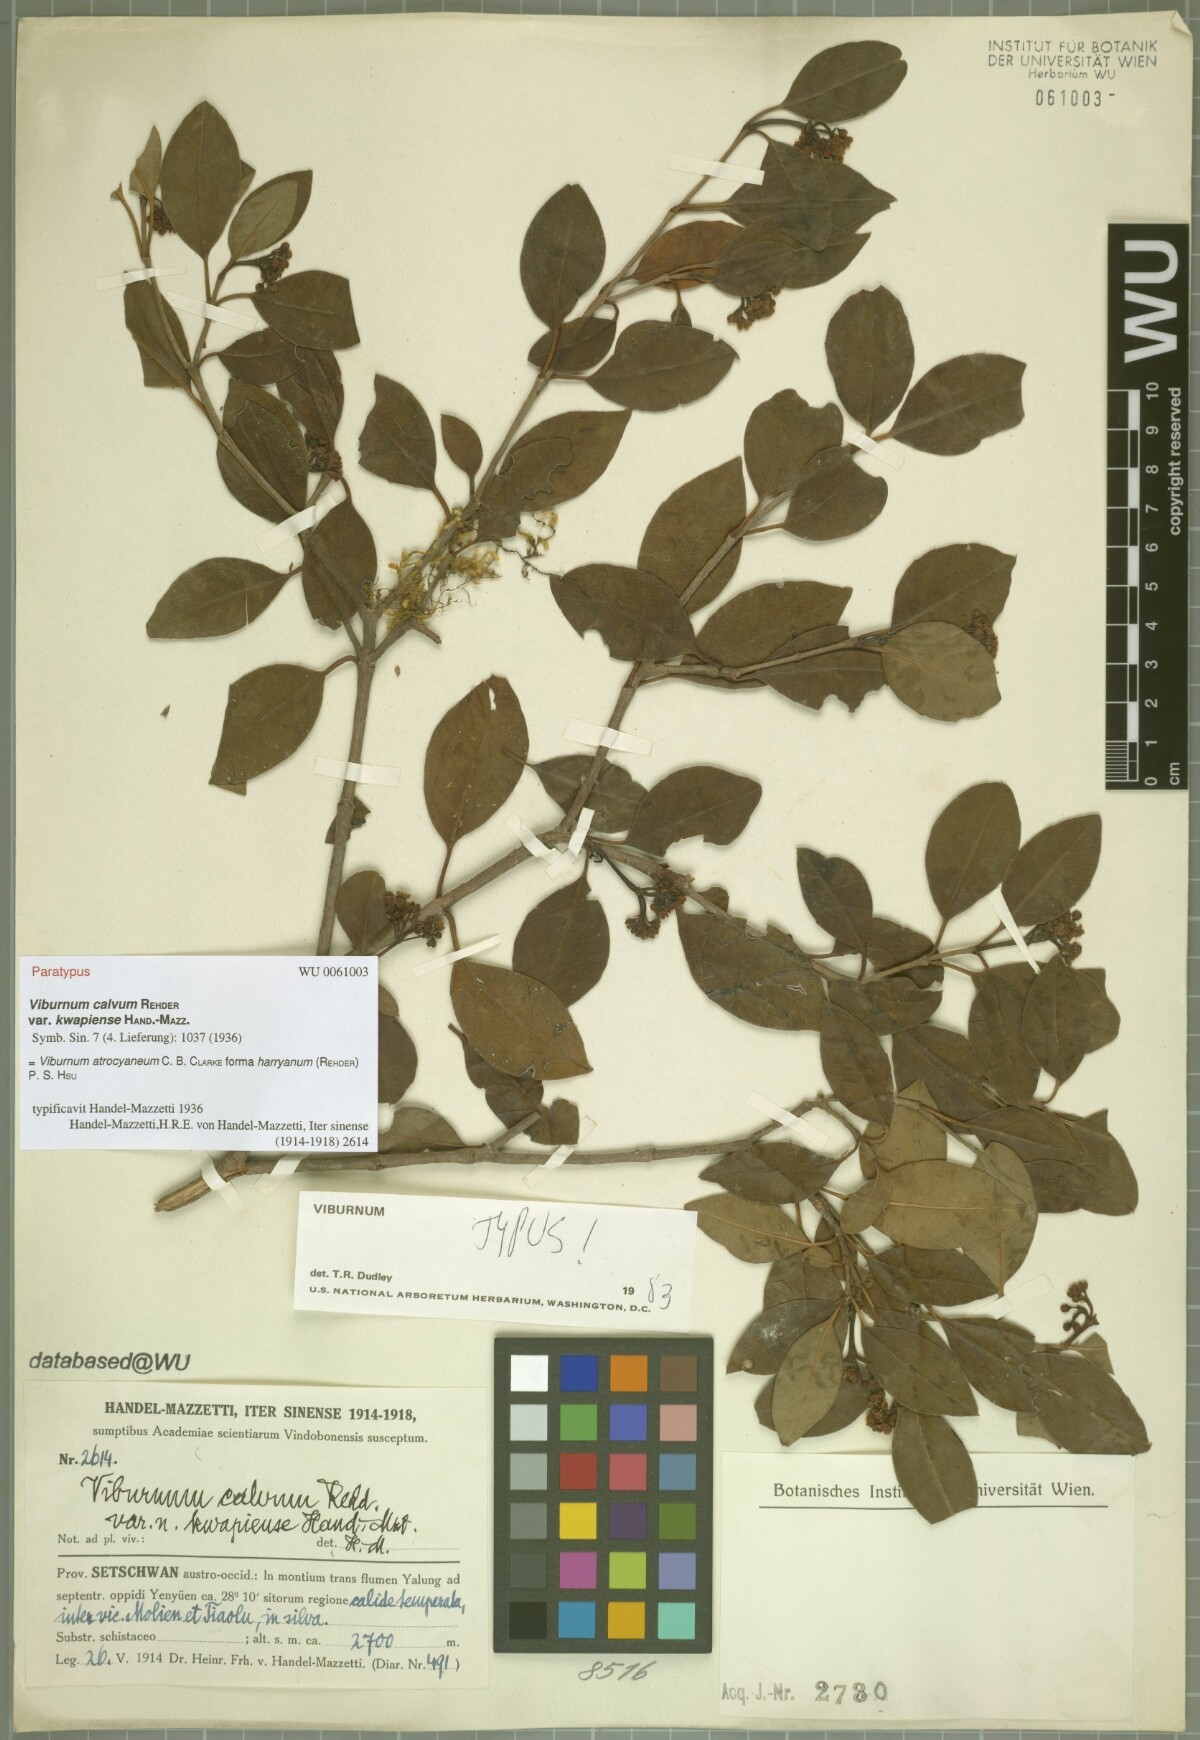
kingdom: Plantae
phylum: Tracheophyta
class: Magnoliopsida
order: Dipsacales
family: Viburnaceae
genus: Viburnum
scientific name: Viburnum atrocyaneum
